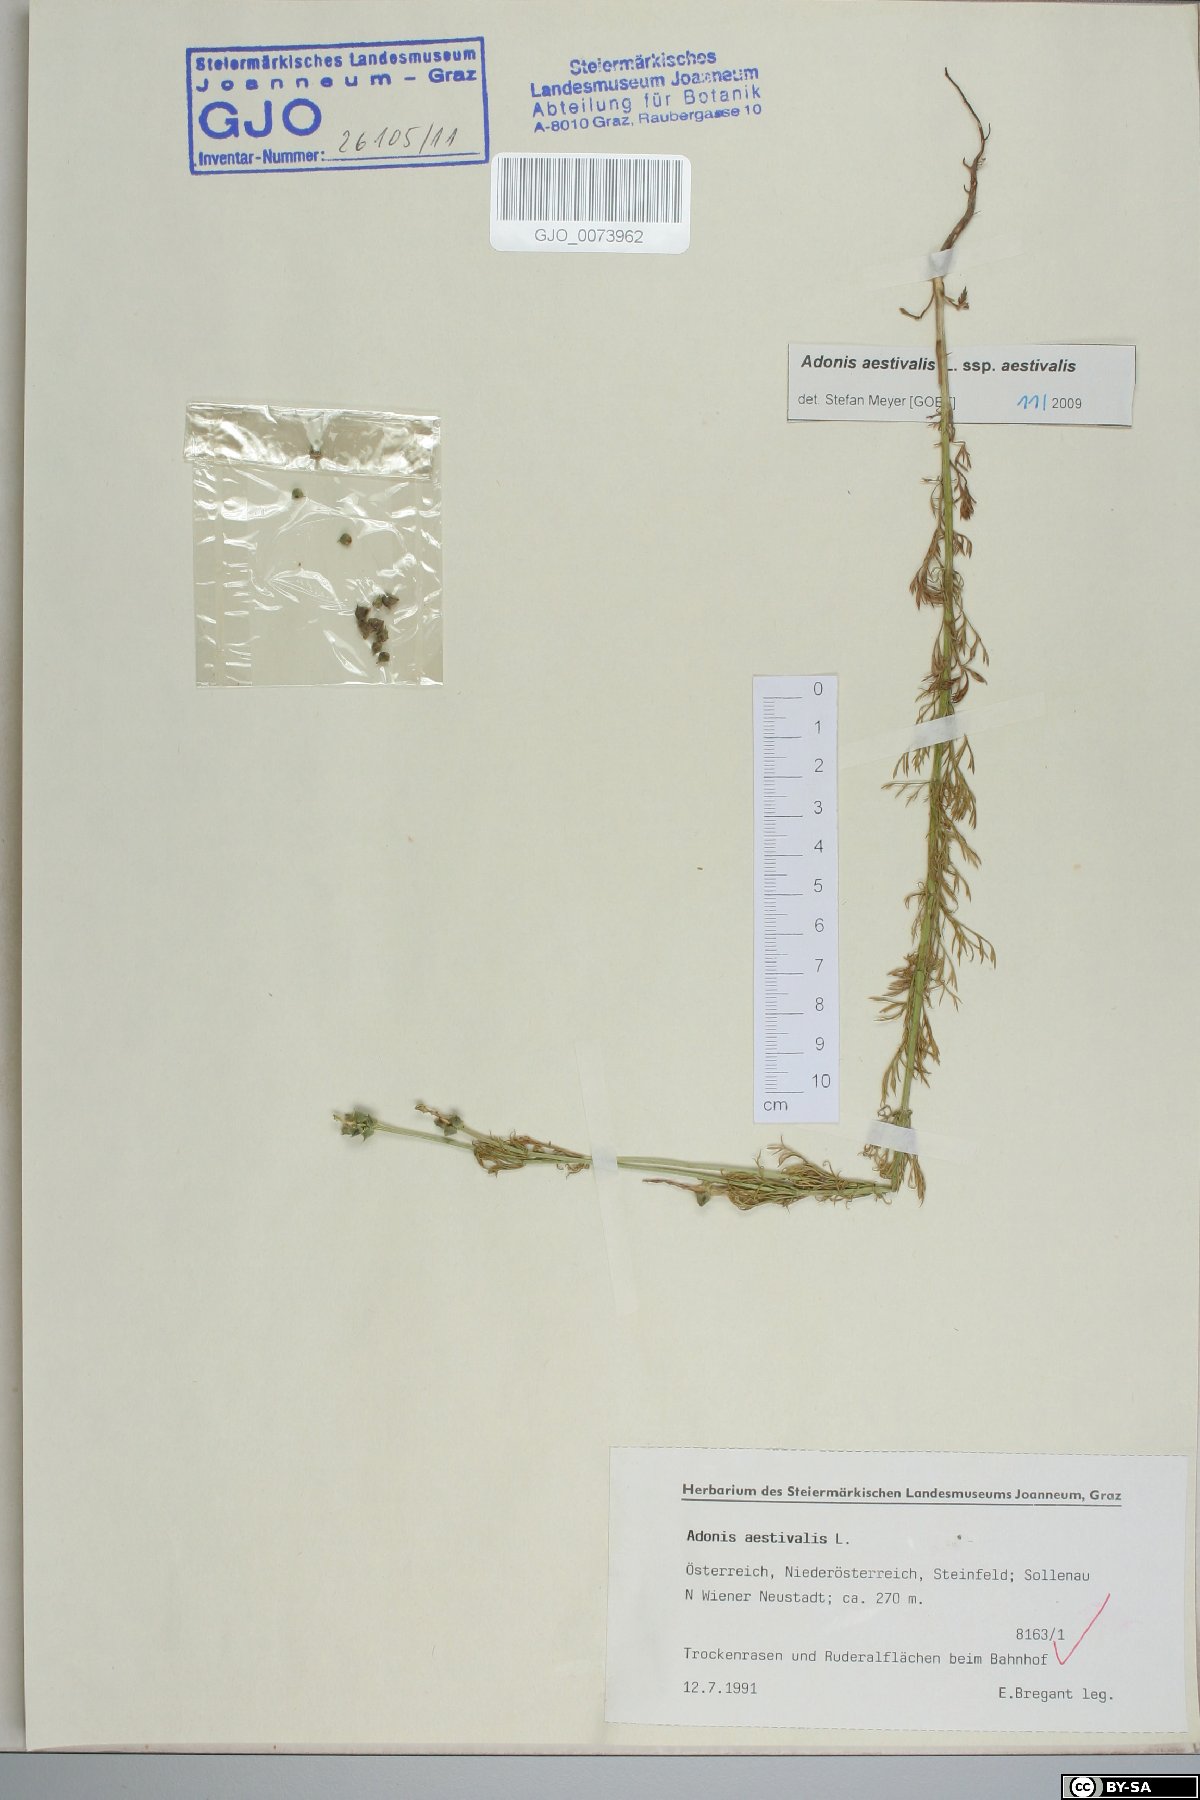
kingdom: Plantae
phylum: Tracheophyta
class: Magnoliopsida
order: Ranunculales
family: Ranunculaceae
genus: Adonis
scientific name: Adonis aestivalis
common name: Summer pheasant's-eye
